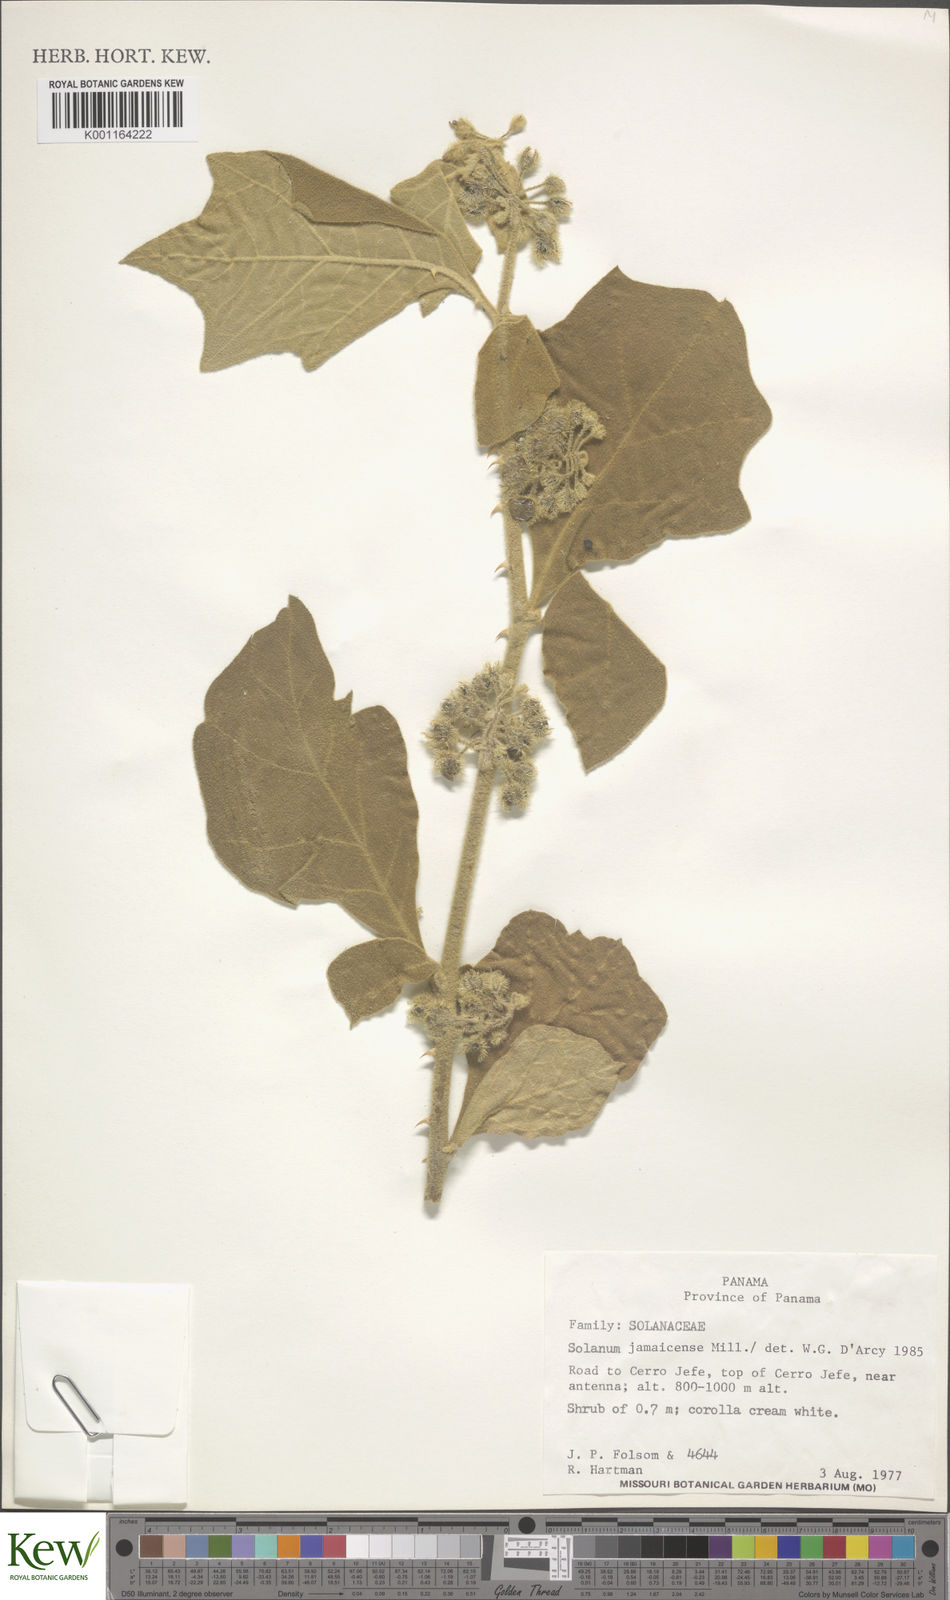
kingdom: Plantae
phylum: Tracheophyta
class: Magnoliopsida
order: Solanales
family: Solanaceae
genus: Solanum
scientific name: Solanum jamaicense
